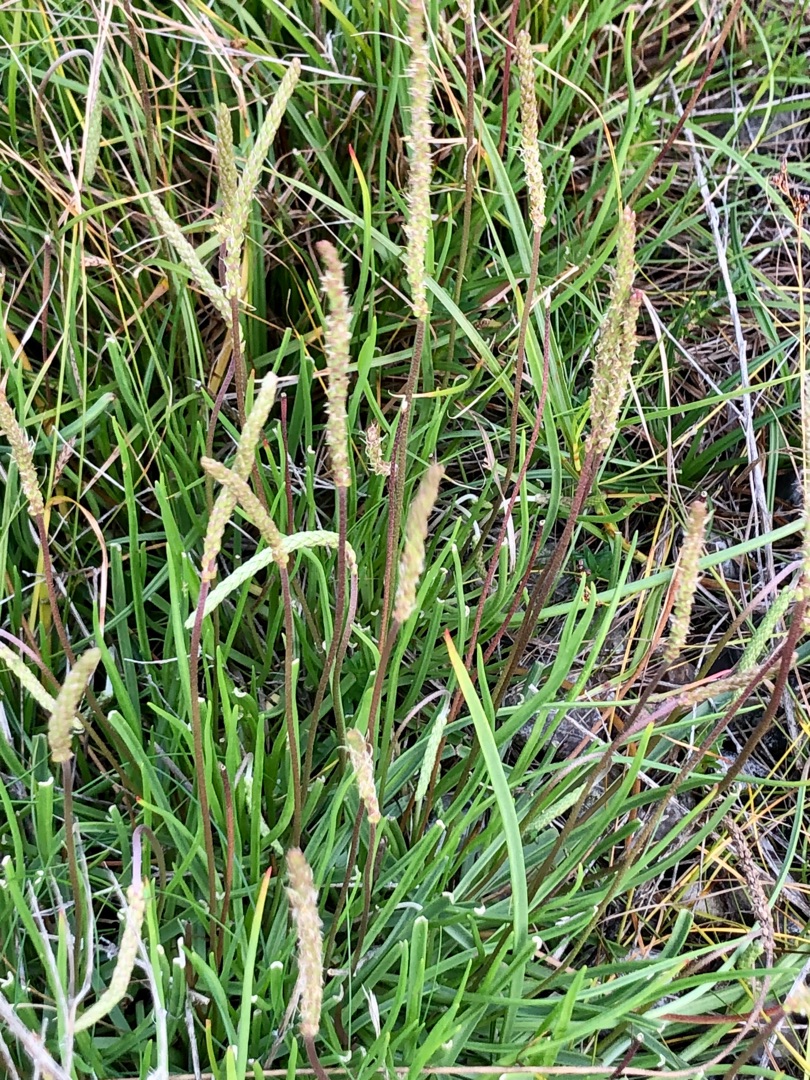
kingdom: Plantae
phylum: Tracheophyta
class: Magnoliopsida
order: Lamiales
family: Plantaginaceae
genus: Plantago
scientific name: Plantago maritima
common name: Strand-vejbred
